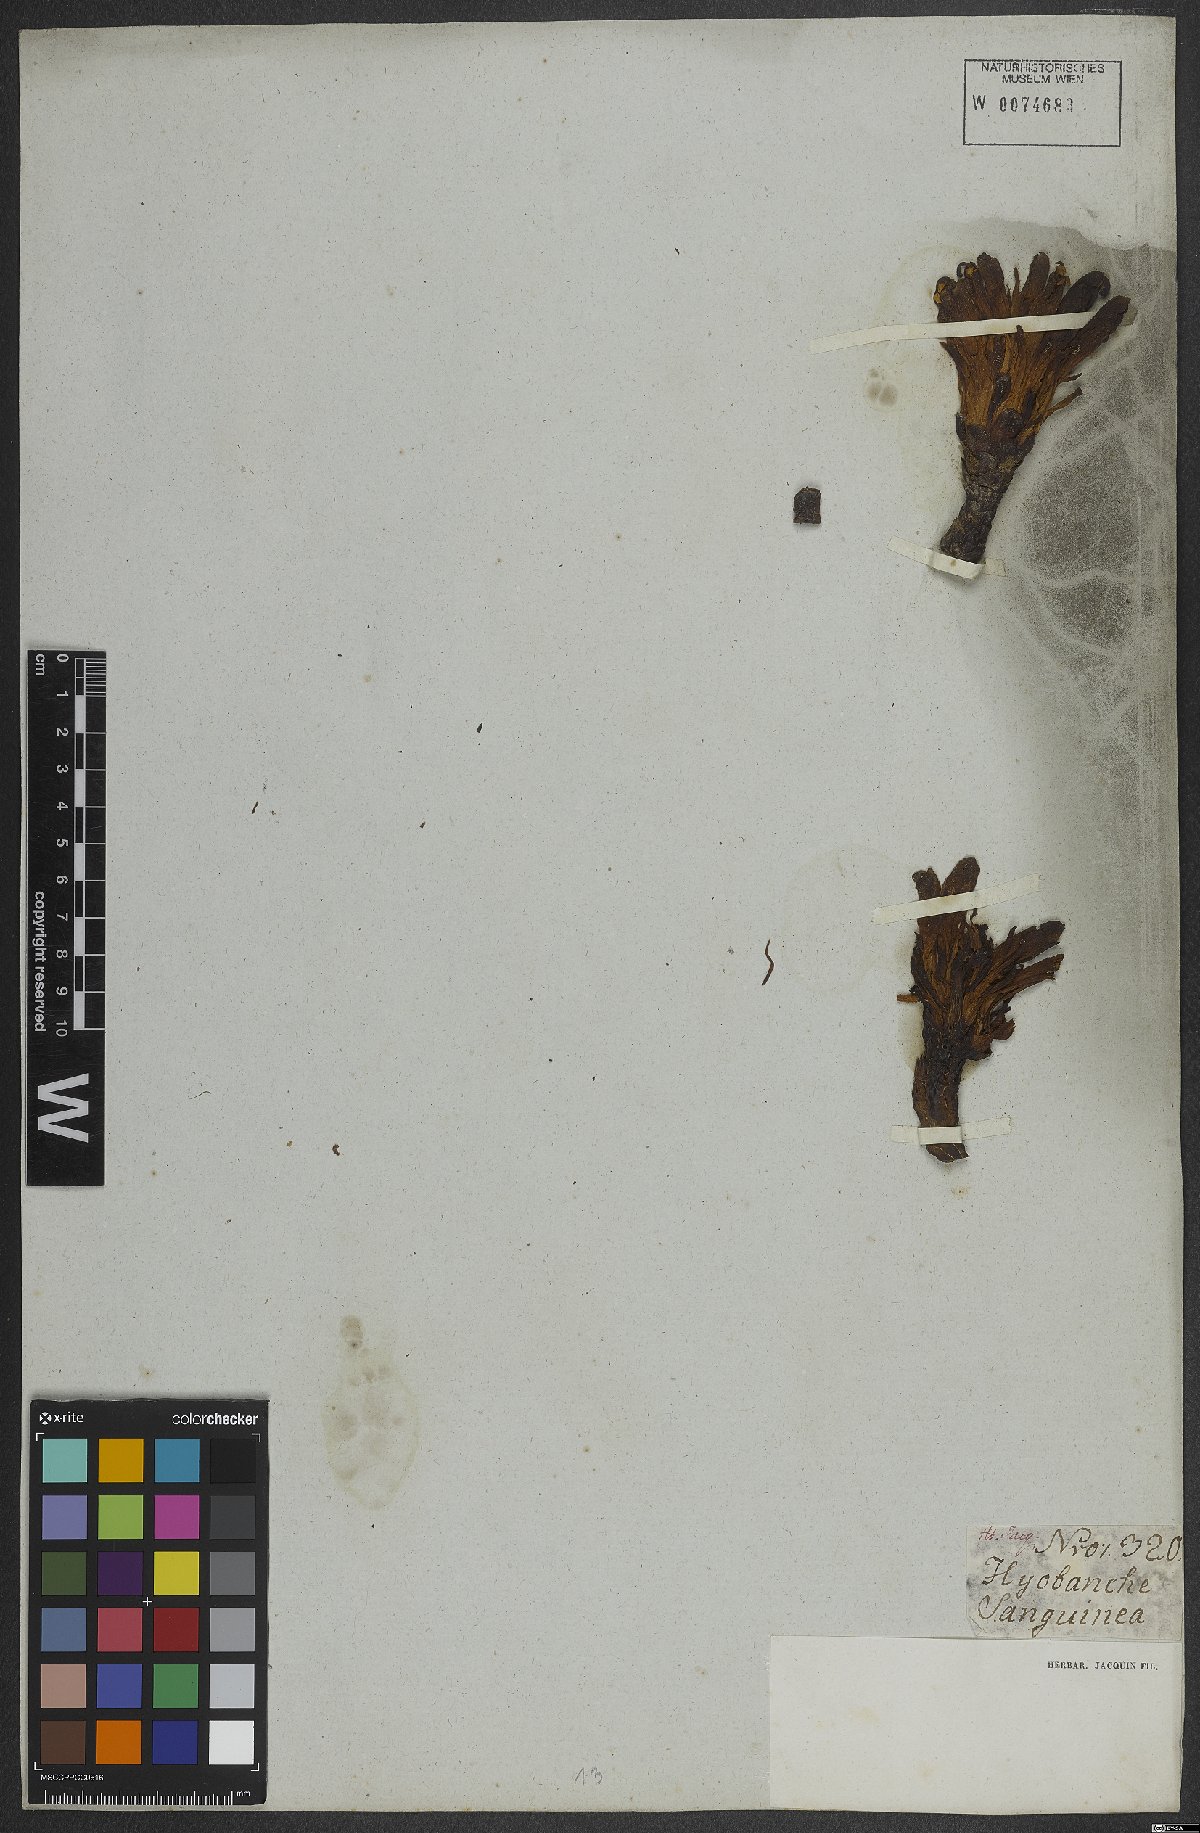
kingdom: Plantae
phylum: Tracheophyta
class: Magnoliopsida
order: Lamiales
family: Orobanchaceae
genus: Hyobanche
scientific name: Hyobanche sanguinea
